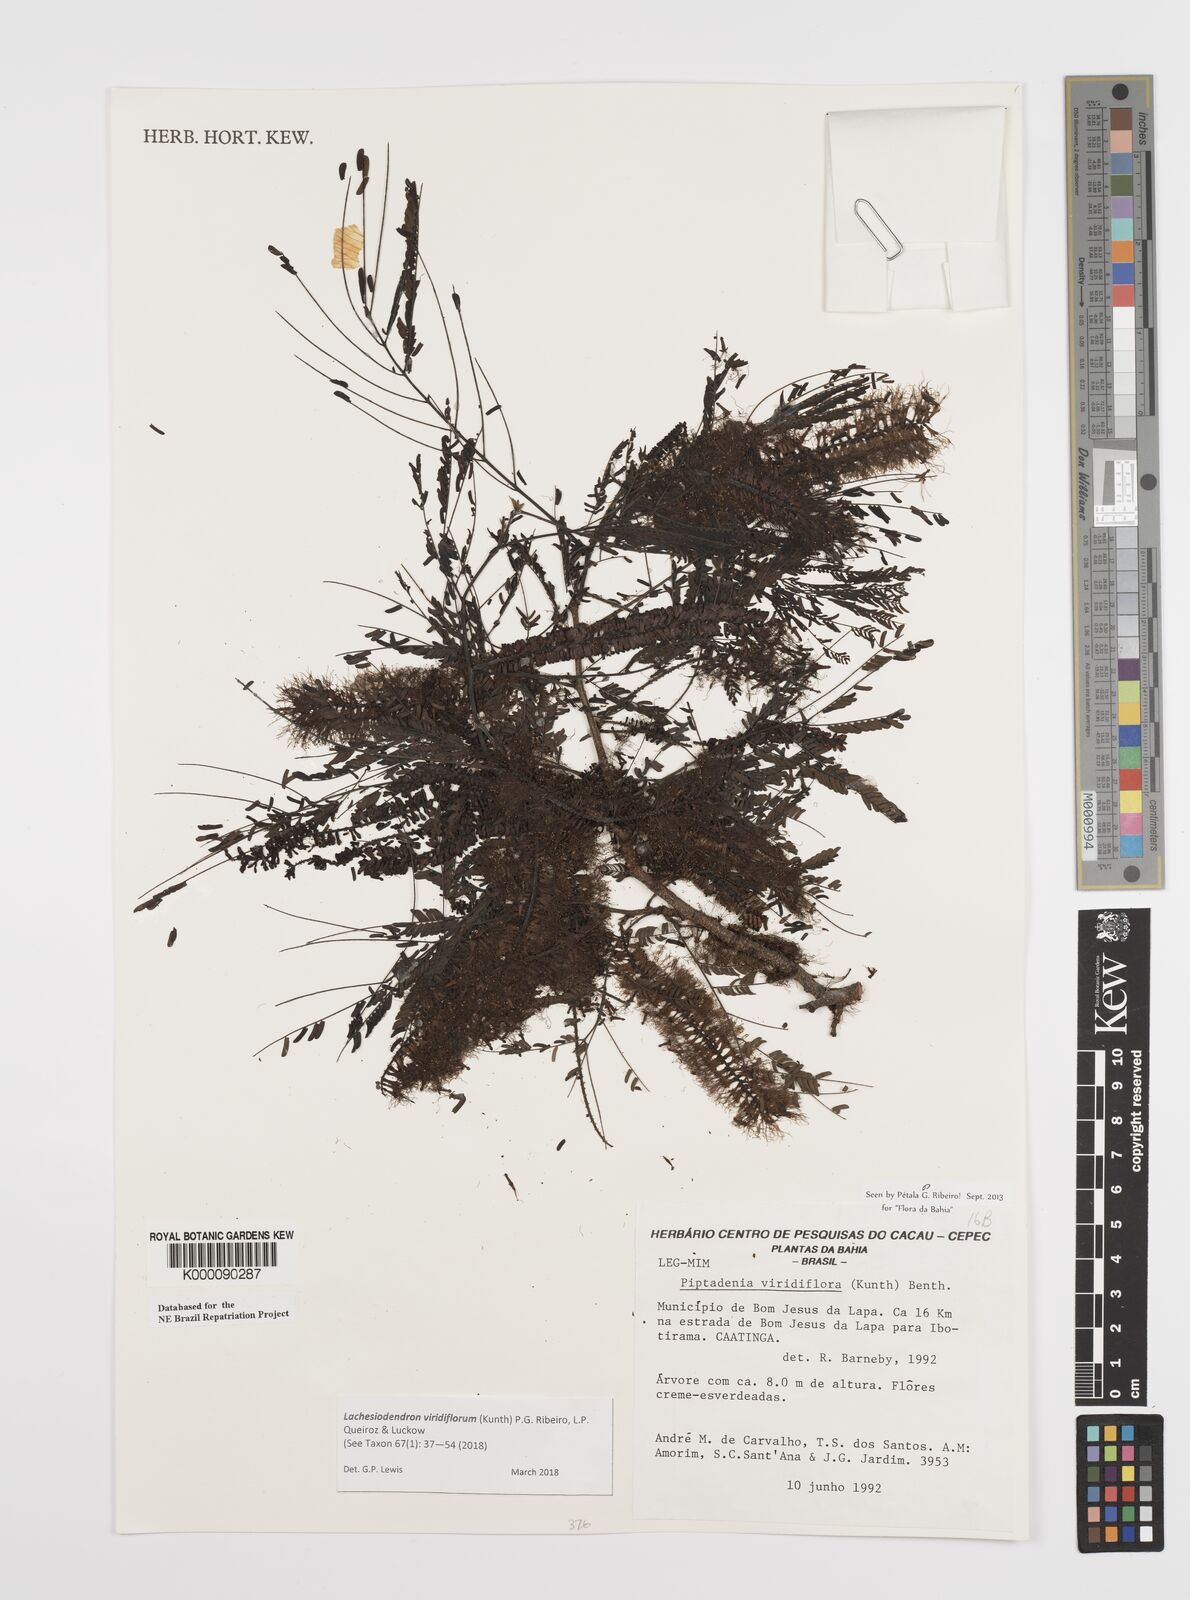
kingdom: Plantae
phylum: Tracheophyta
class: Magnoliopsida
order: Fabales
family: Fabaceae
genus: Lachesiodendron
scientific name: Lachesiodendron viridiflorum
